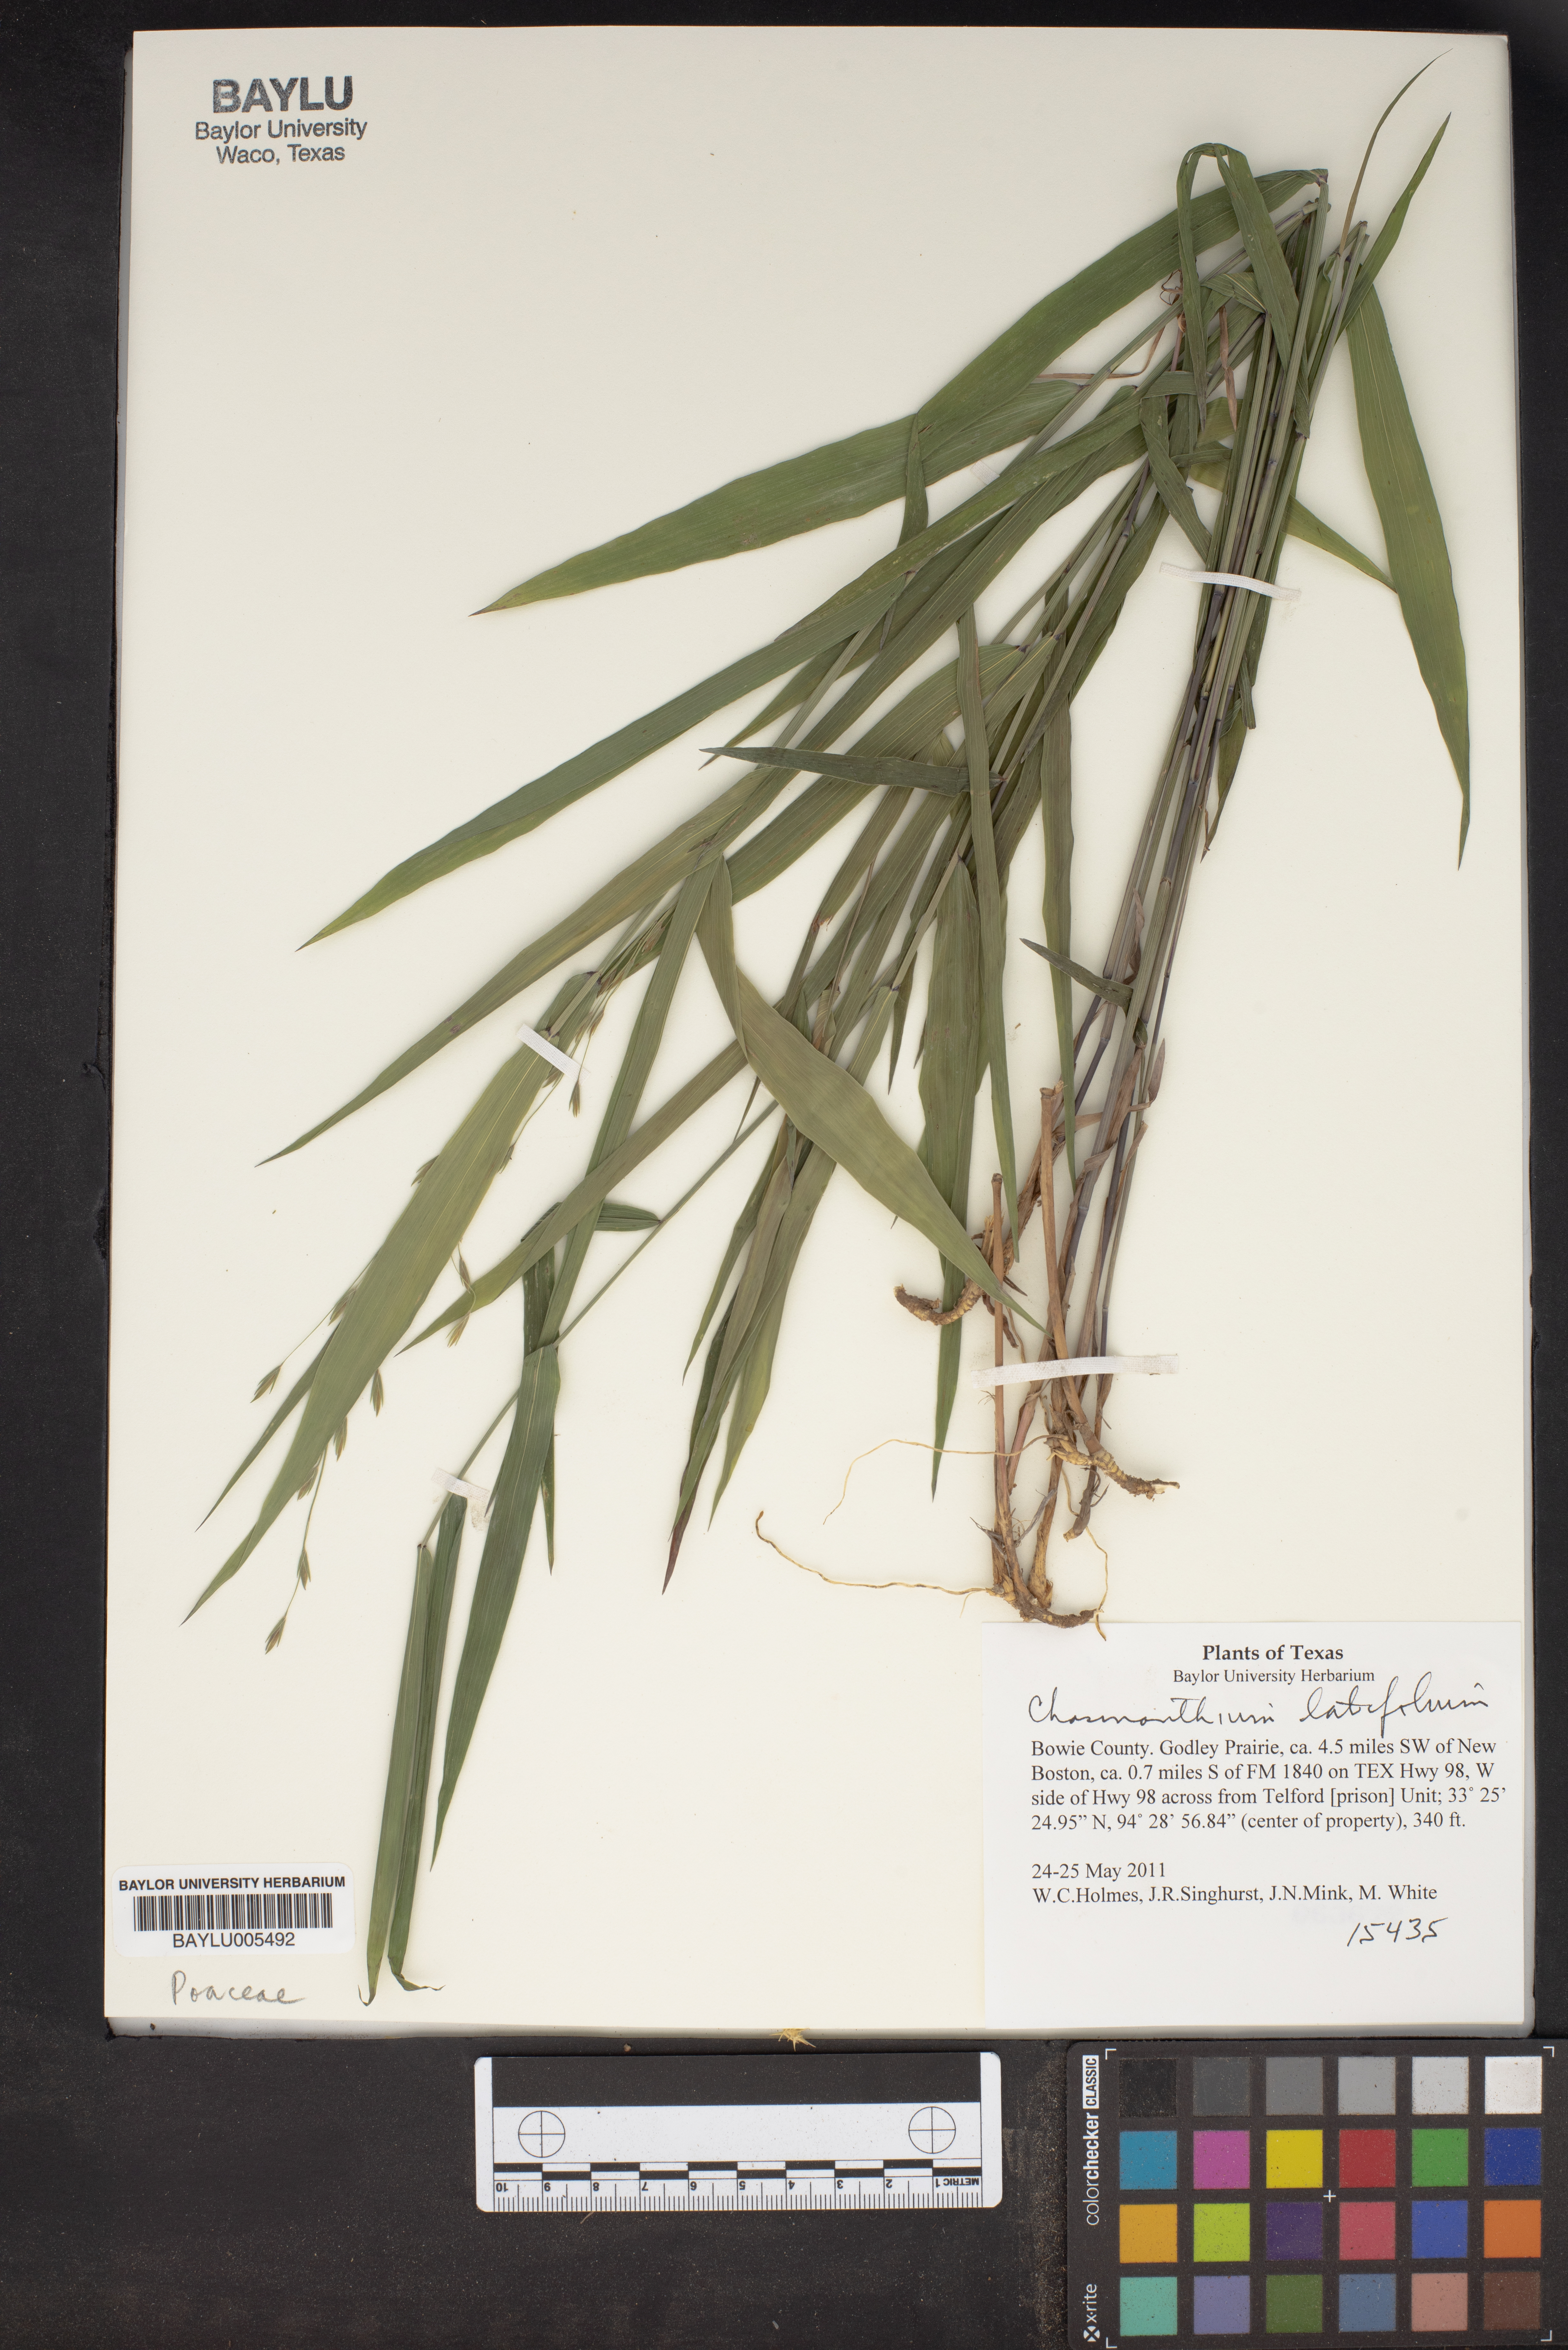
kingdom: Plantae
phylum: Tracheophyta
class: Liliopsida
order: Poales
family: Poaceae
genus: Chasmanthium
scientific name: Chasmanthium latifolium
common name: Broad-leaved chasmanthium
